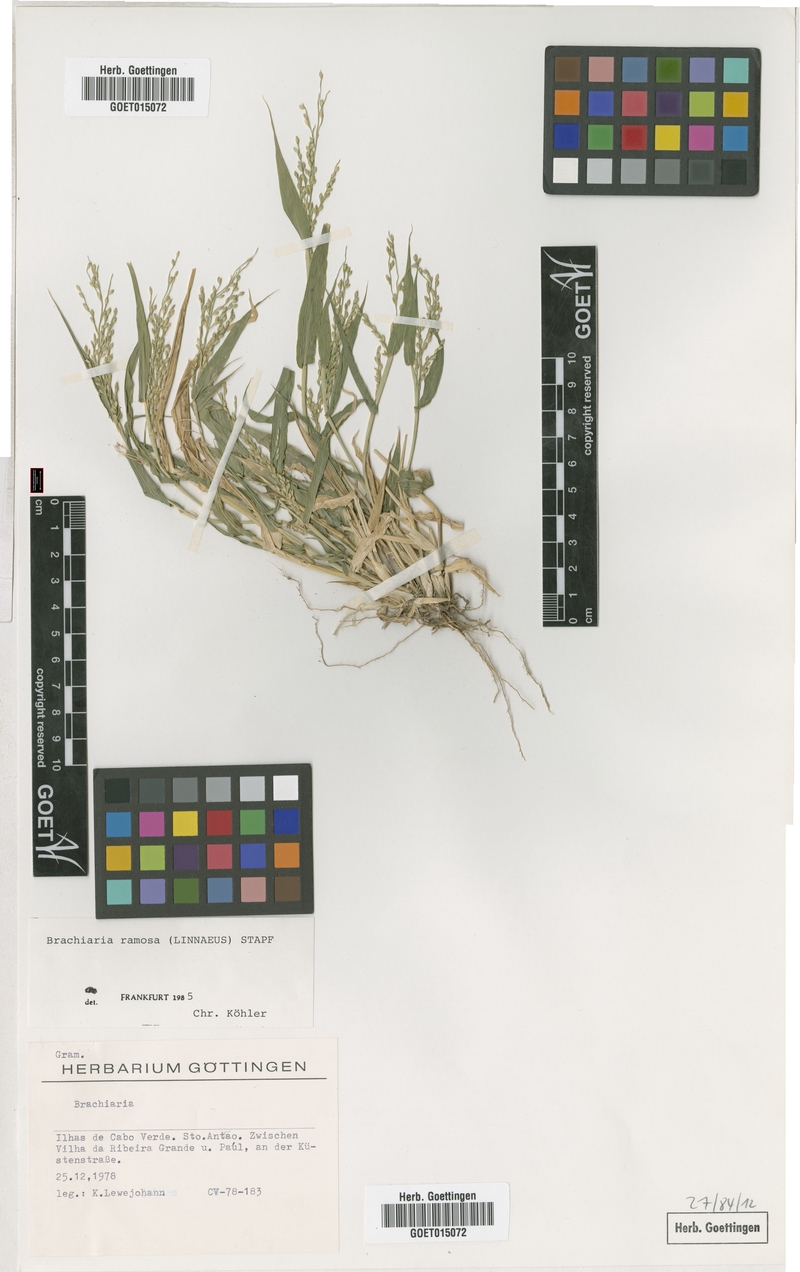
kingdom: Plantae
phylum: Tracheophyta
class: Liliopsida
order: Poales
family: Poaceae
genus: Urochloa
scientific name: Urochloa ramosa
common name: Browntop millet
